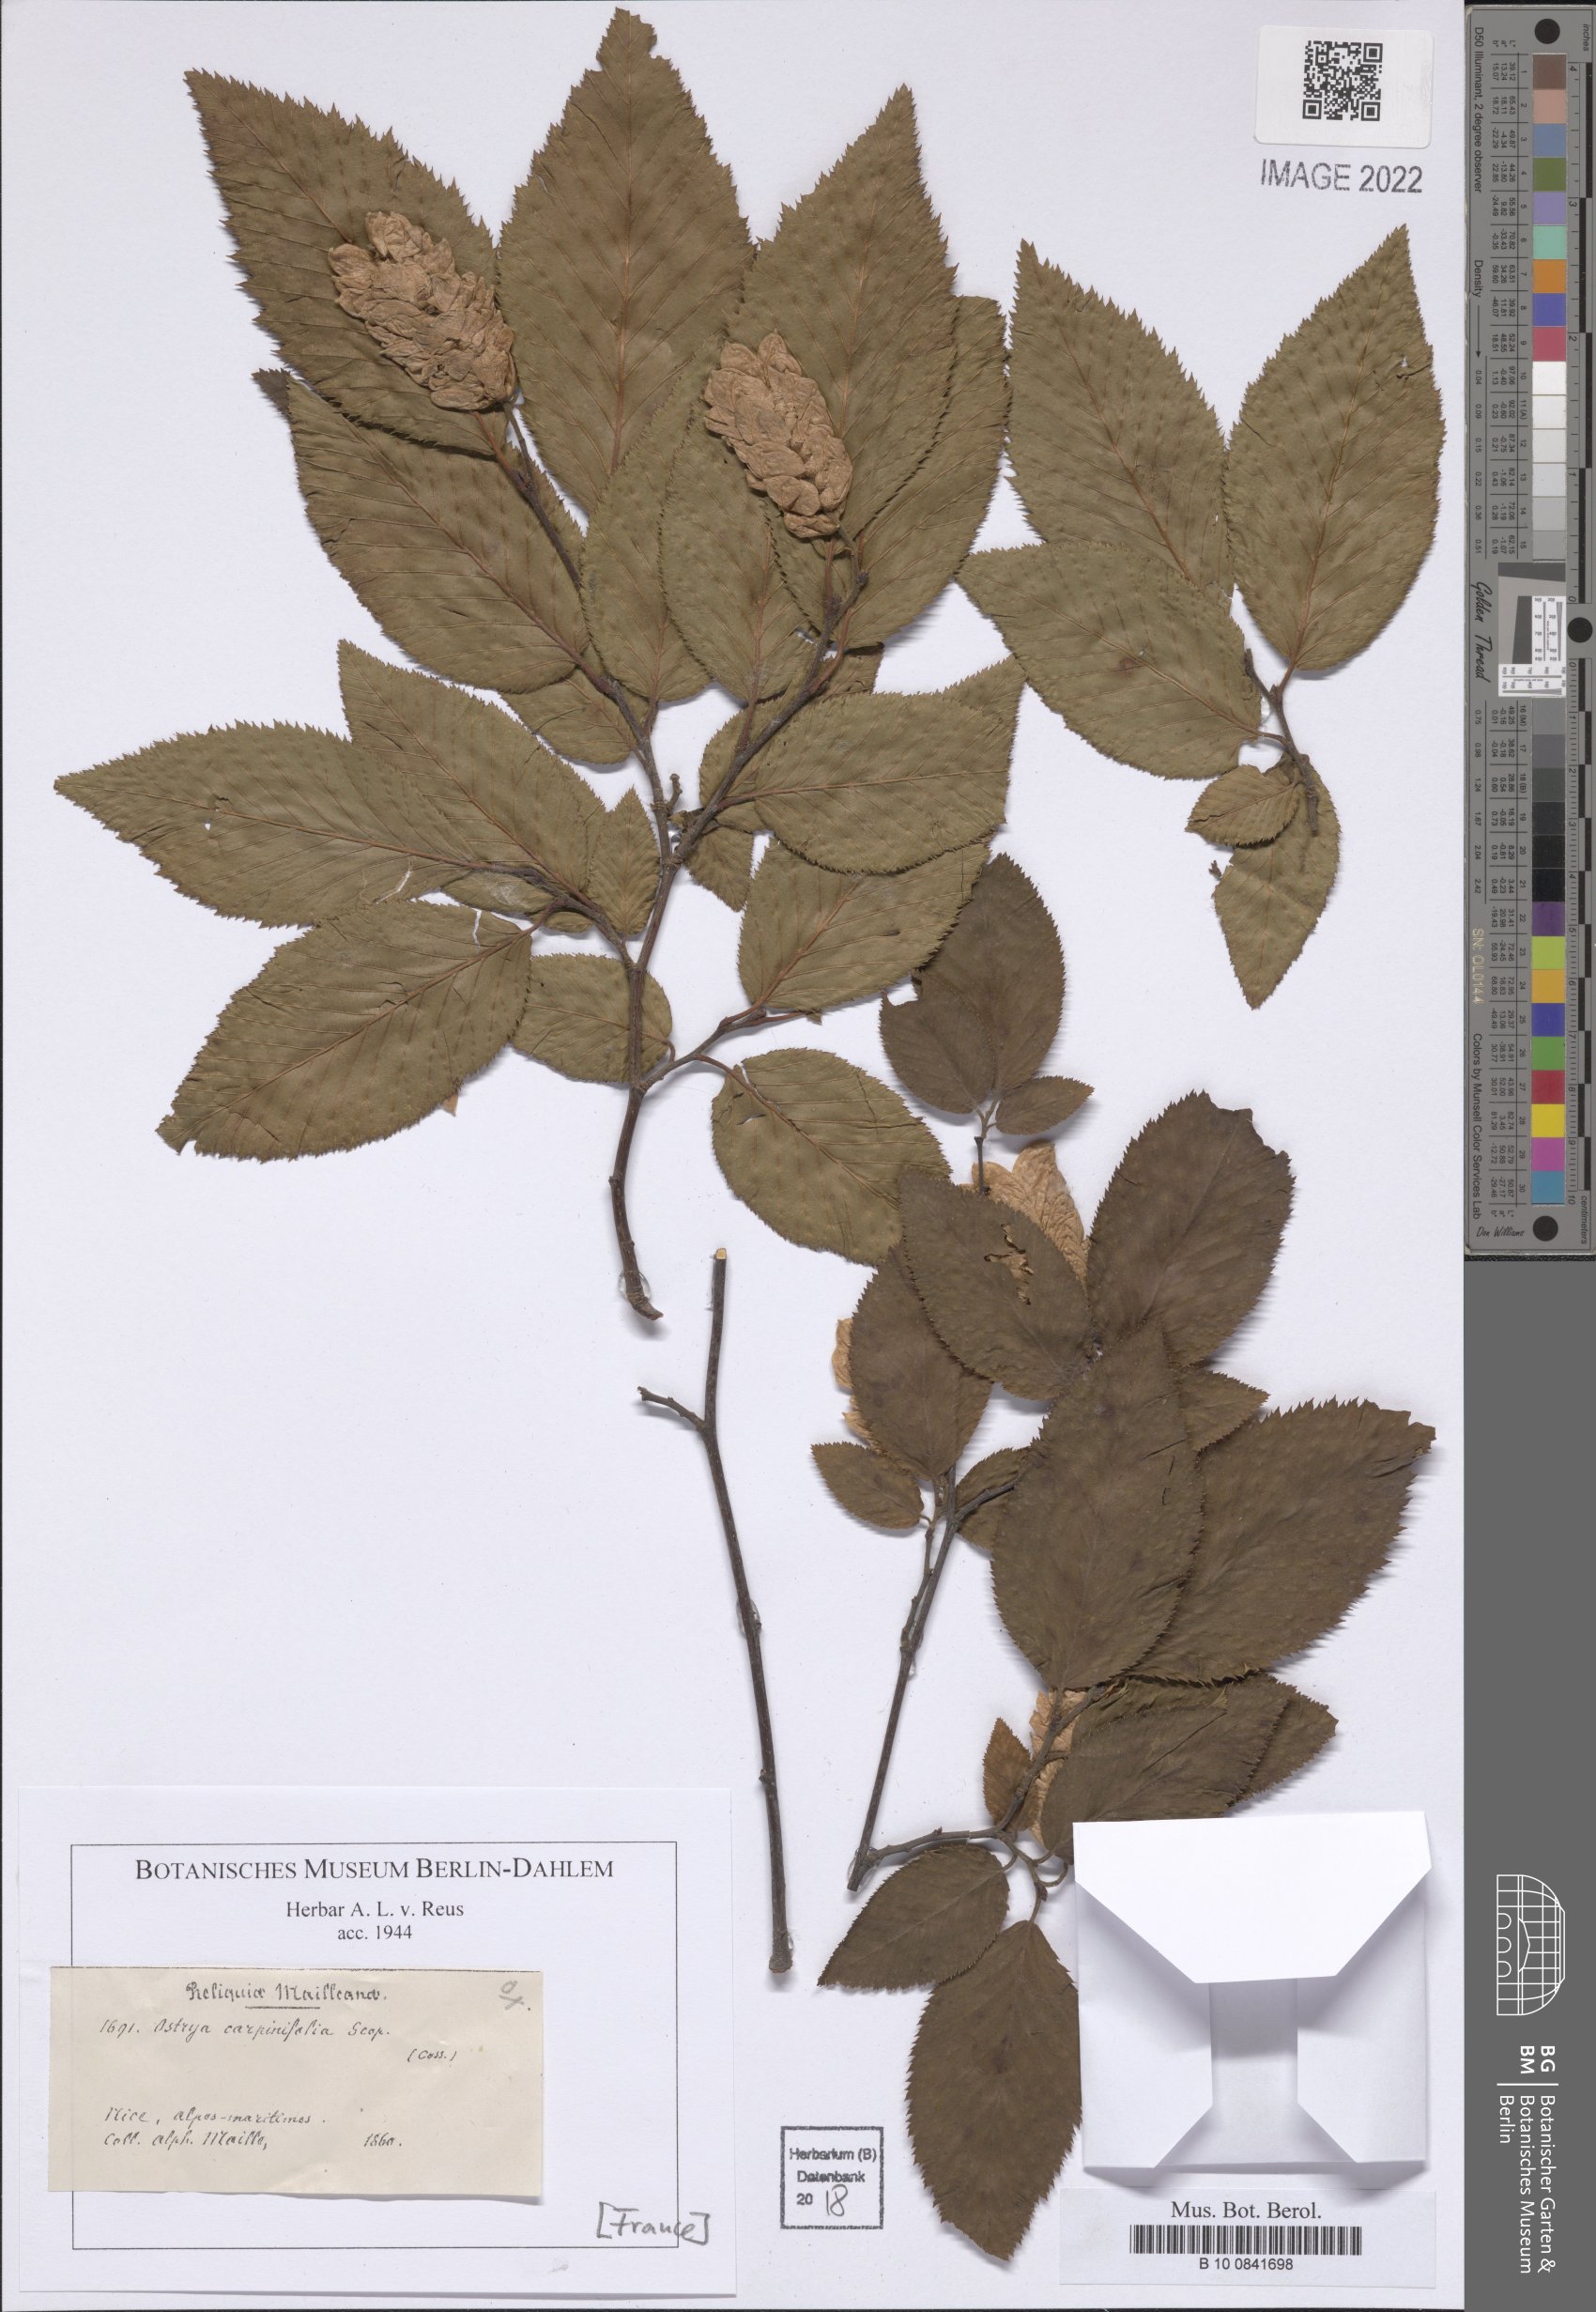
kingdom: Plantae
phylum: Tracheophyta
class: Magnoliopsida
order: Fagales
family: Betulaceae
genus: Ostrya
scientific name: Ostrya carpinifolia
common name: European hop-hornbeam
